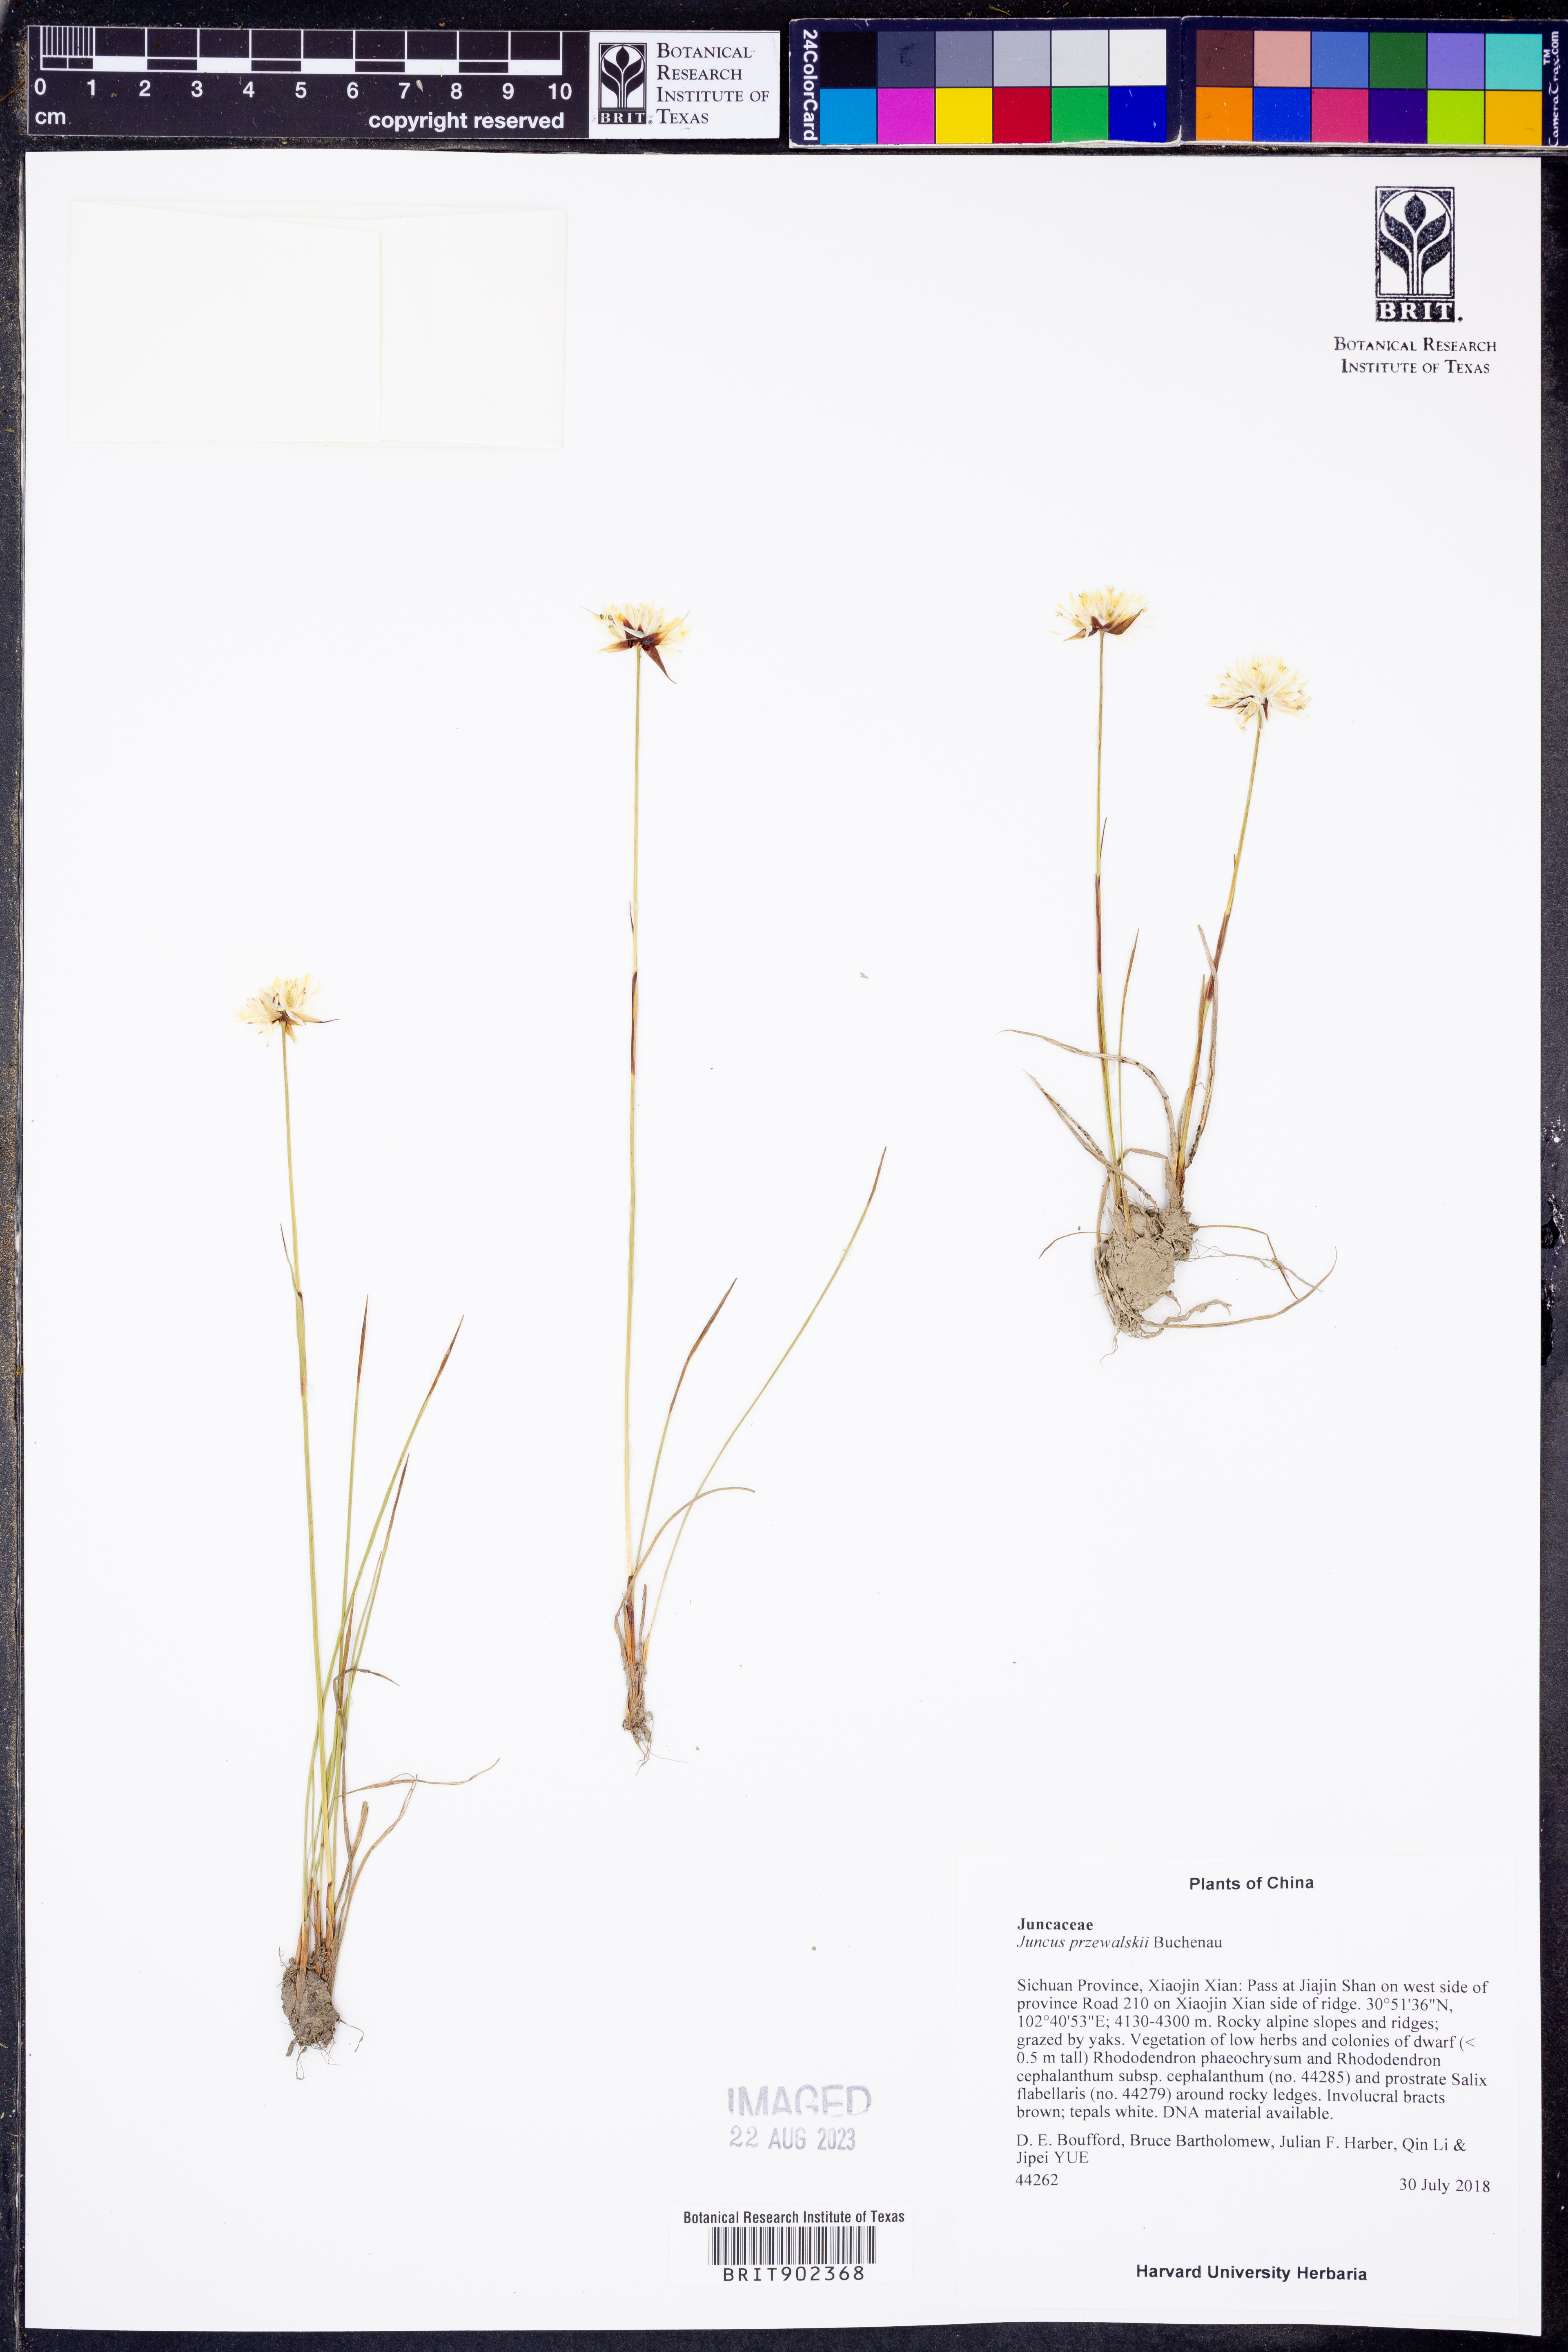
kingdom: Plantae
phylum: Tracheophyta
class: Liliopsida
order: Poales
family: Juncaceae
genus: Juncus
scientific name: Juncus
